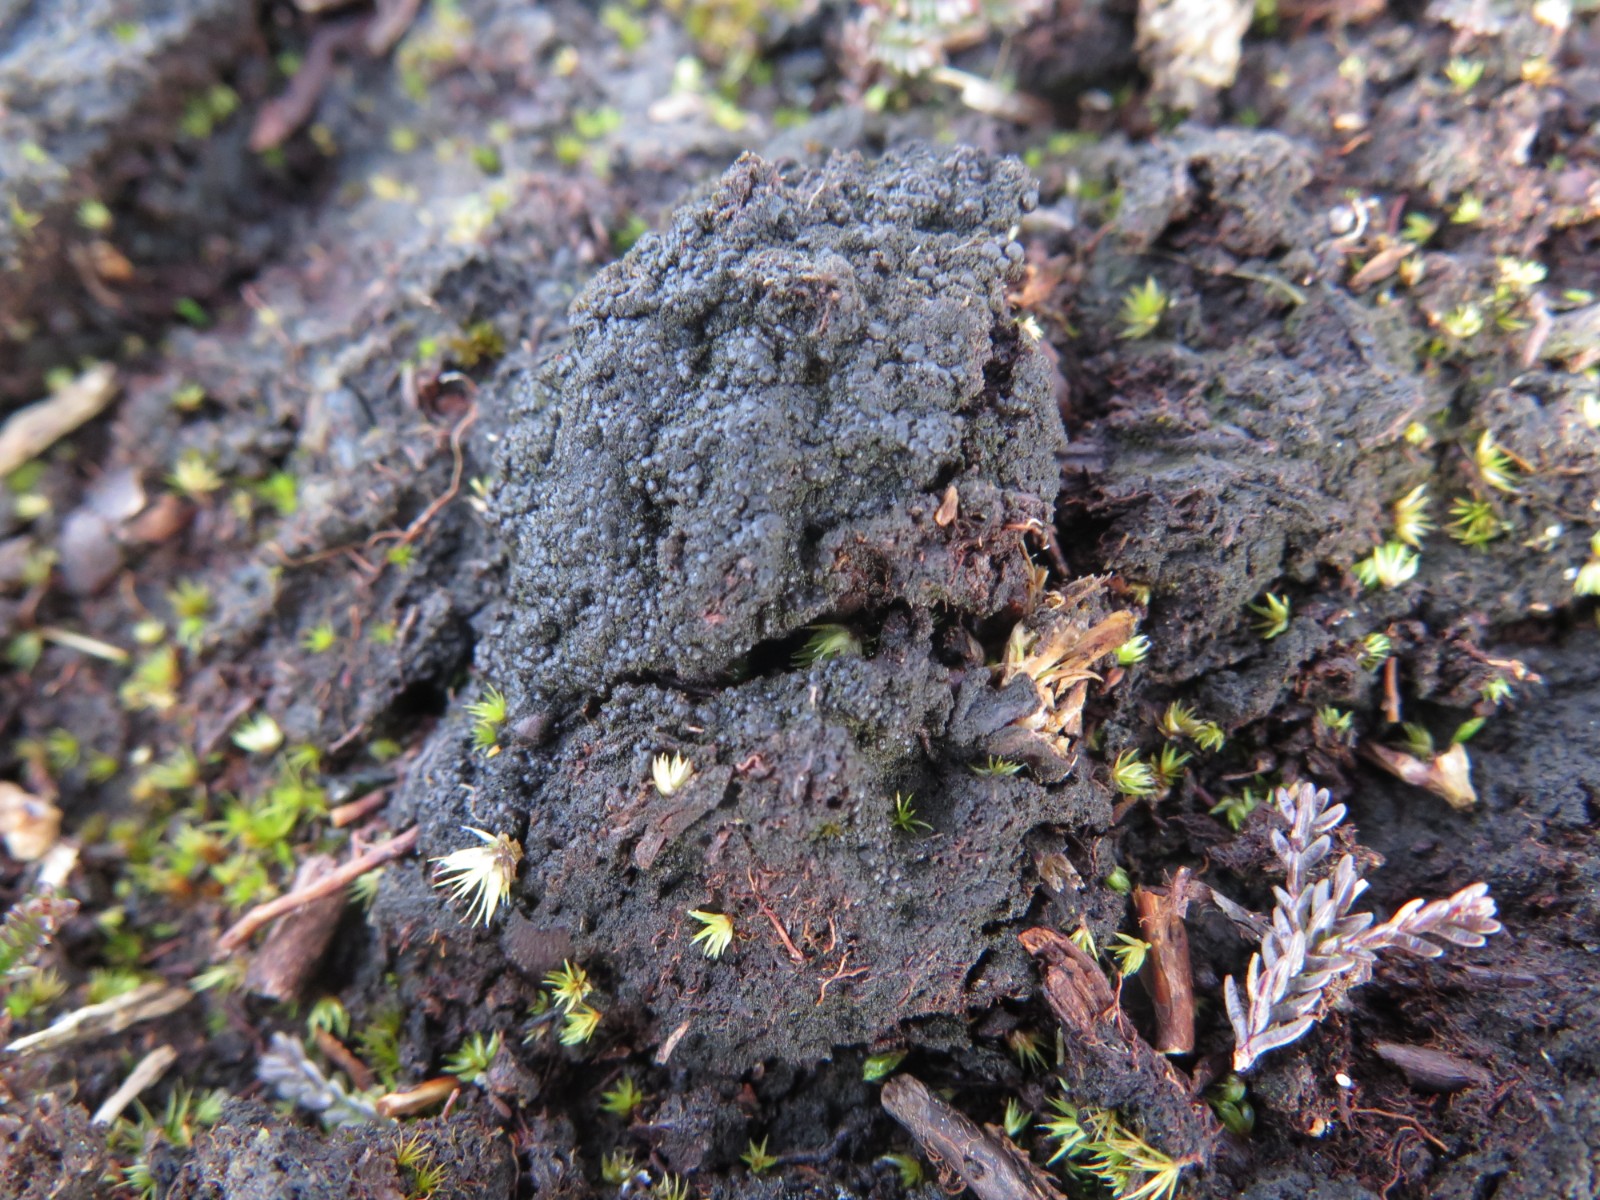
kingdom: Fungi
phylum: Ascomycota
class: Lecanoromycetes
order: Baeomycetales
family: Trapeliaceae
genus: Placynthiella
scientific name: Placynthiella uliginosa
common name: tørve-skivelav
